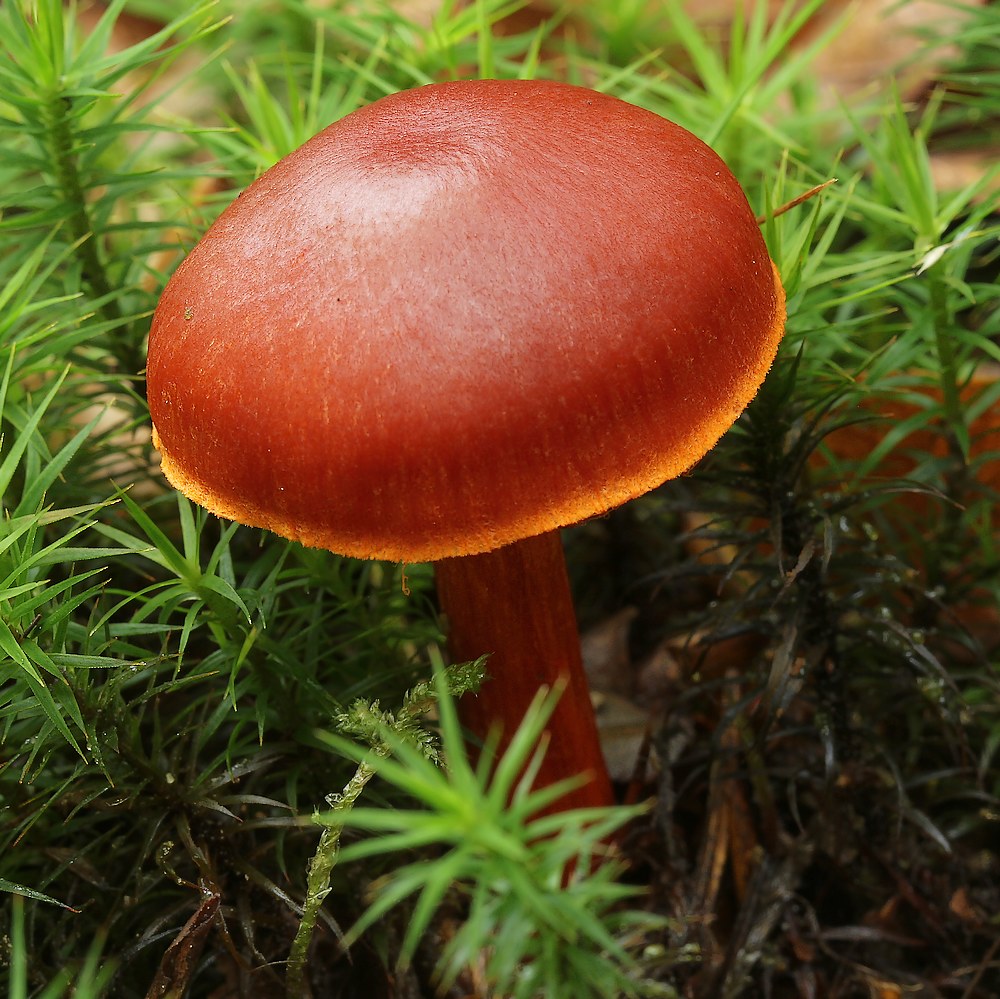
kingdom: Fungi
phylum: Basidiomycota
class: Agaricomycetes
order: Agaricales
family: Cortinariaceae
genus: Cortinarius
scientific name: Cortinarius cinnabarinus
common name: cinnober-slørhat
